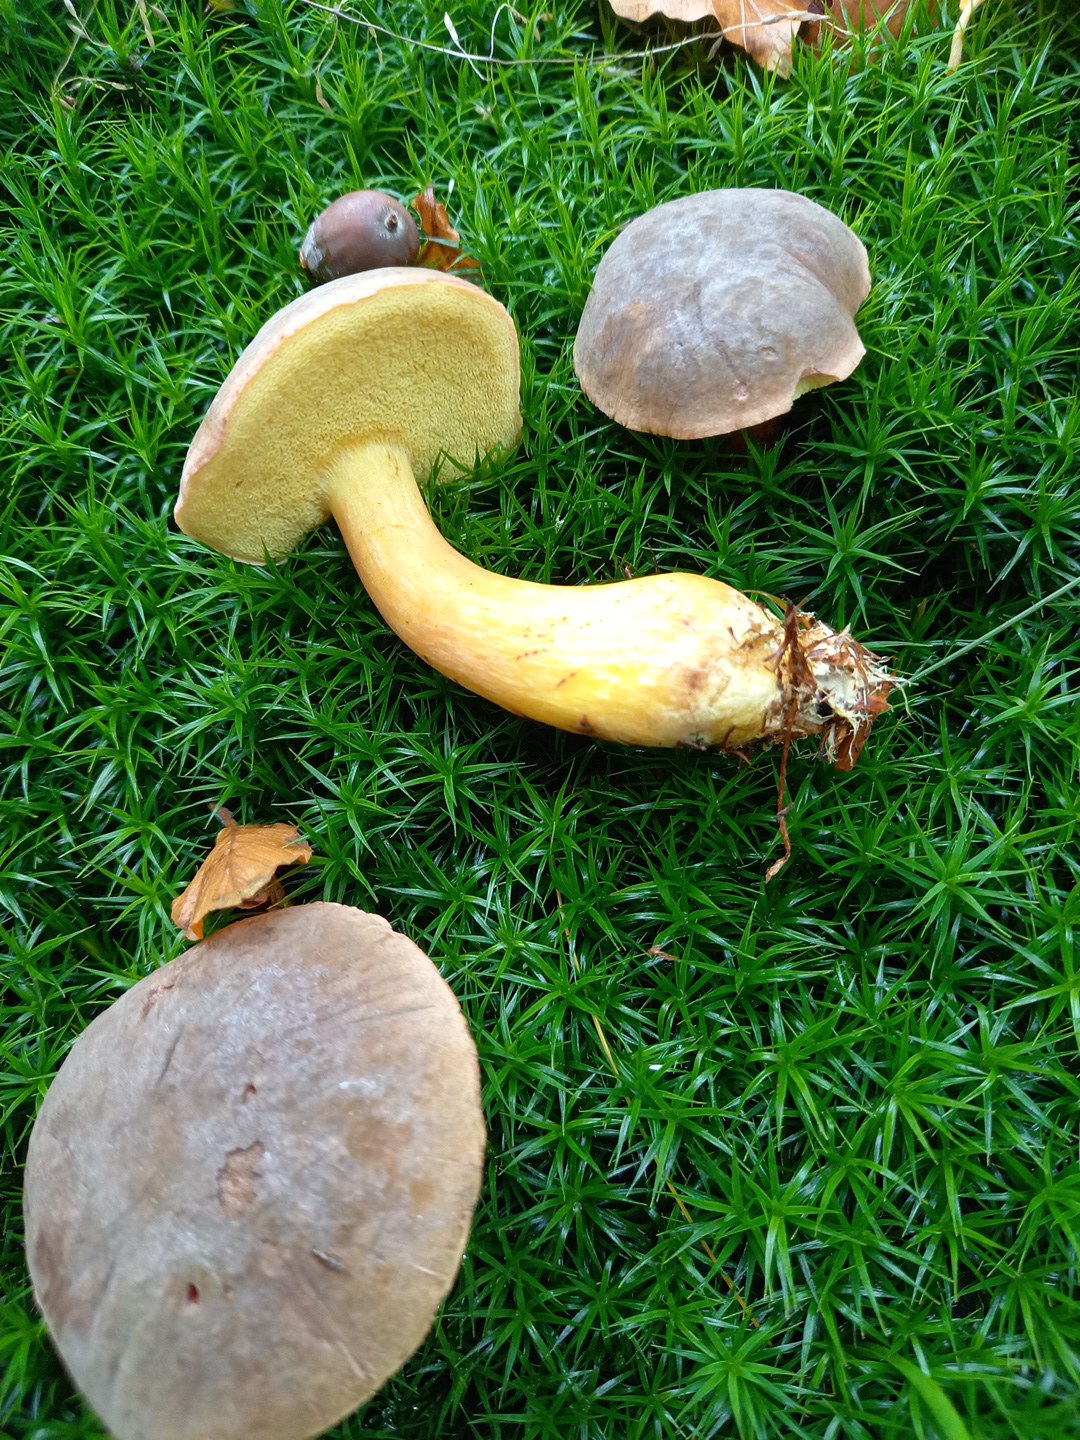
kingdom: Fungi
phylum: Basidiomycota
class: Agaricomycetes
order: Boletales
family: Boletaceae
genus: Xerocomellus
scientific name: Xerocomellus pruinatus
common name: dugget rørhat
